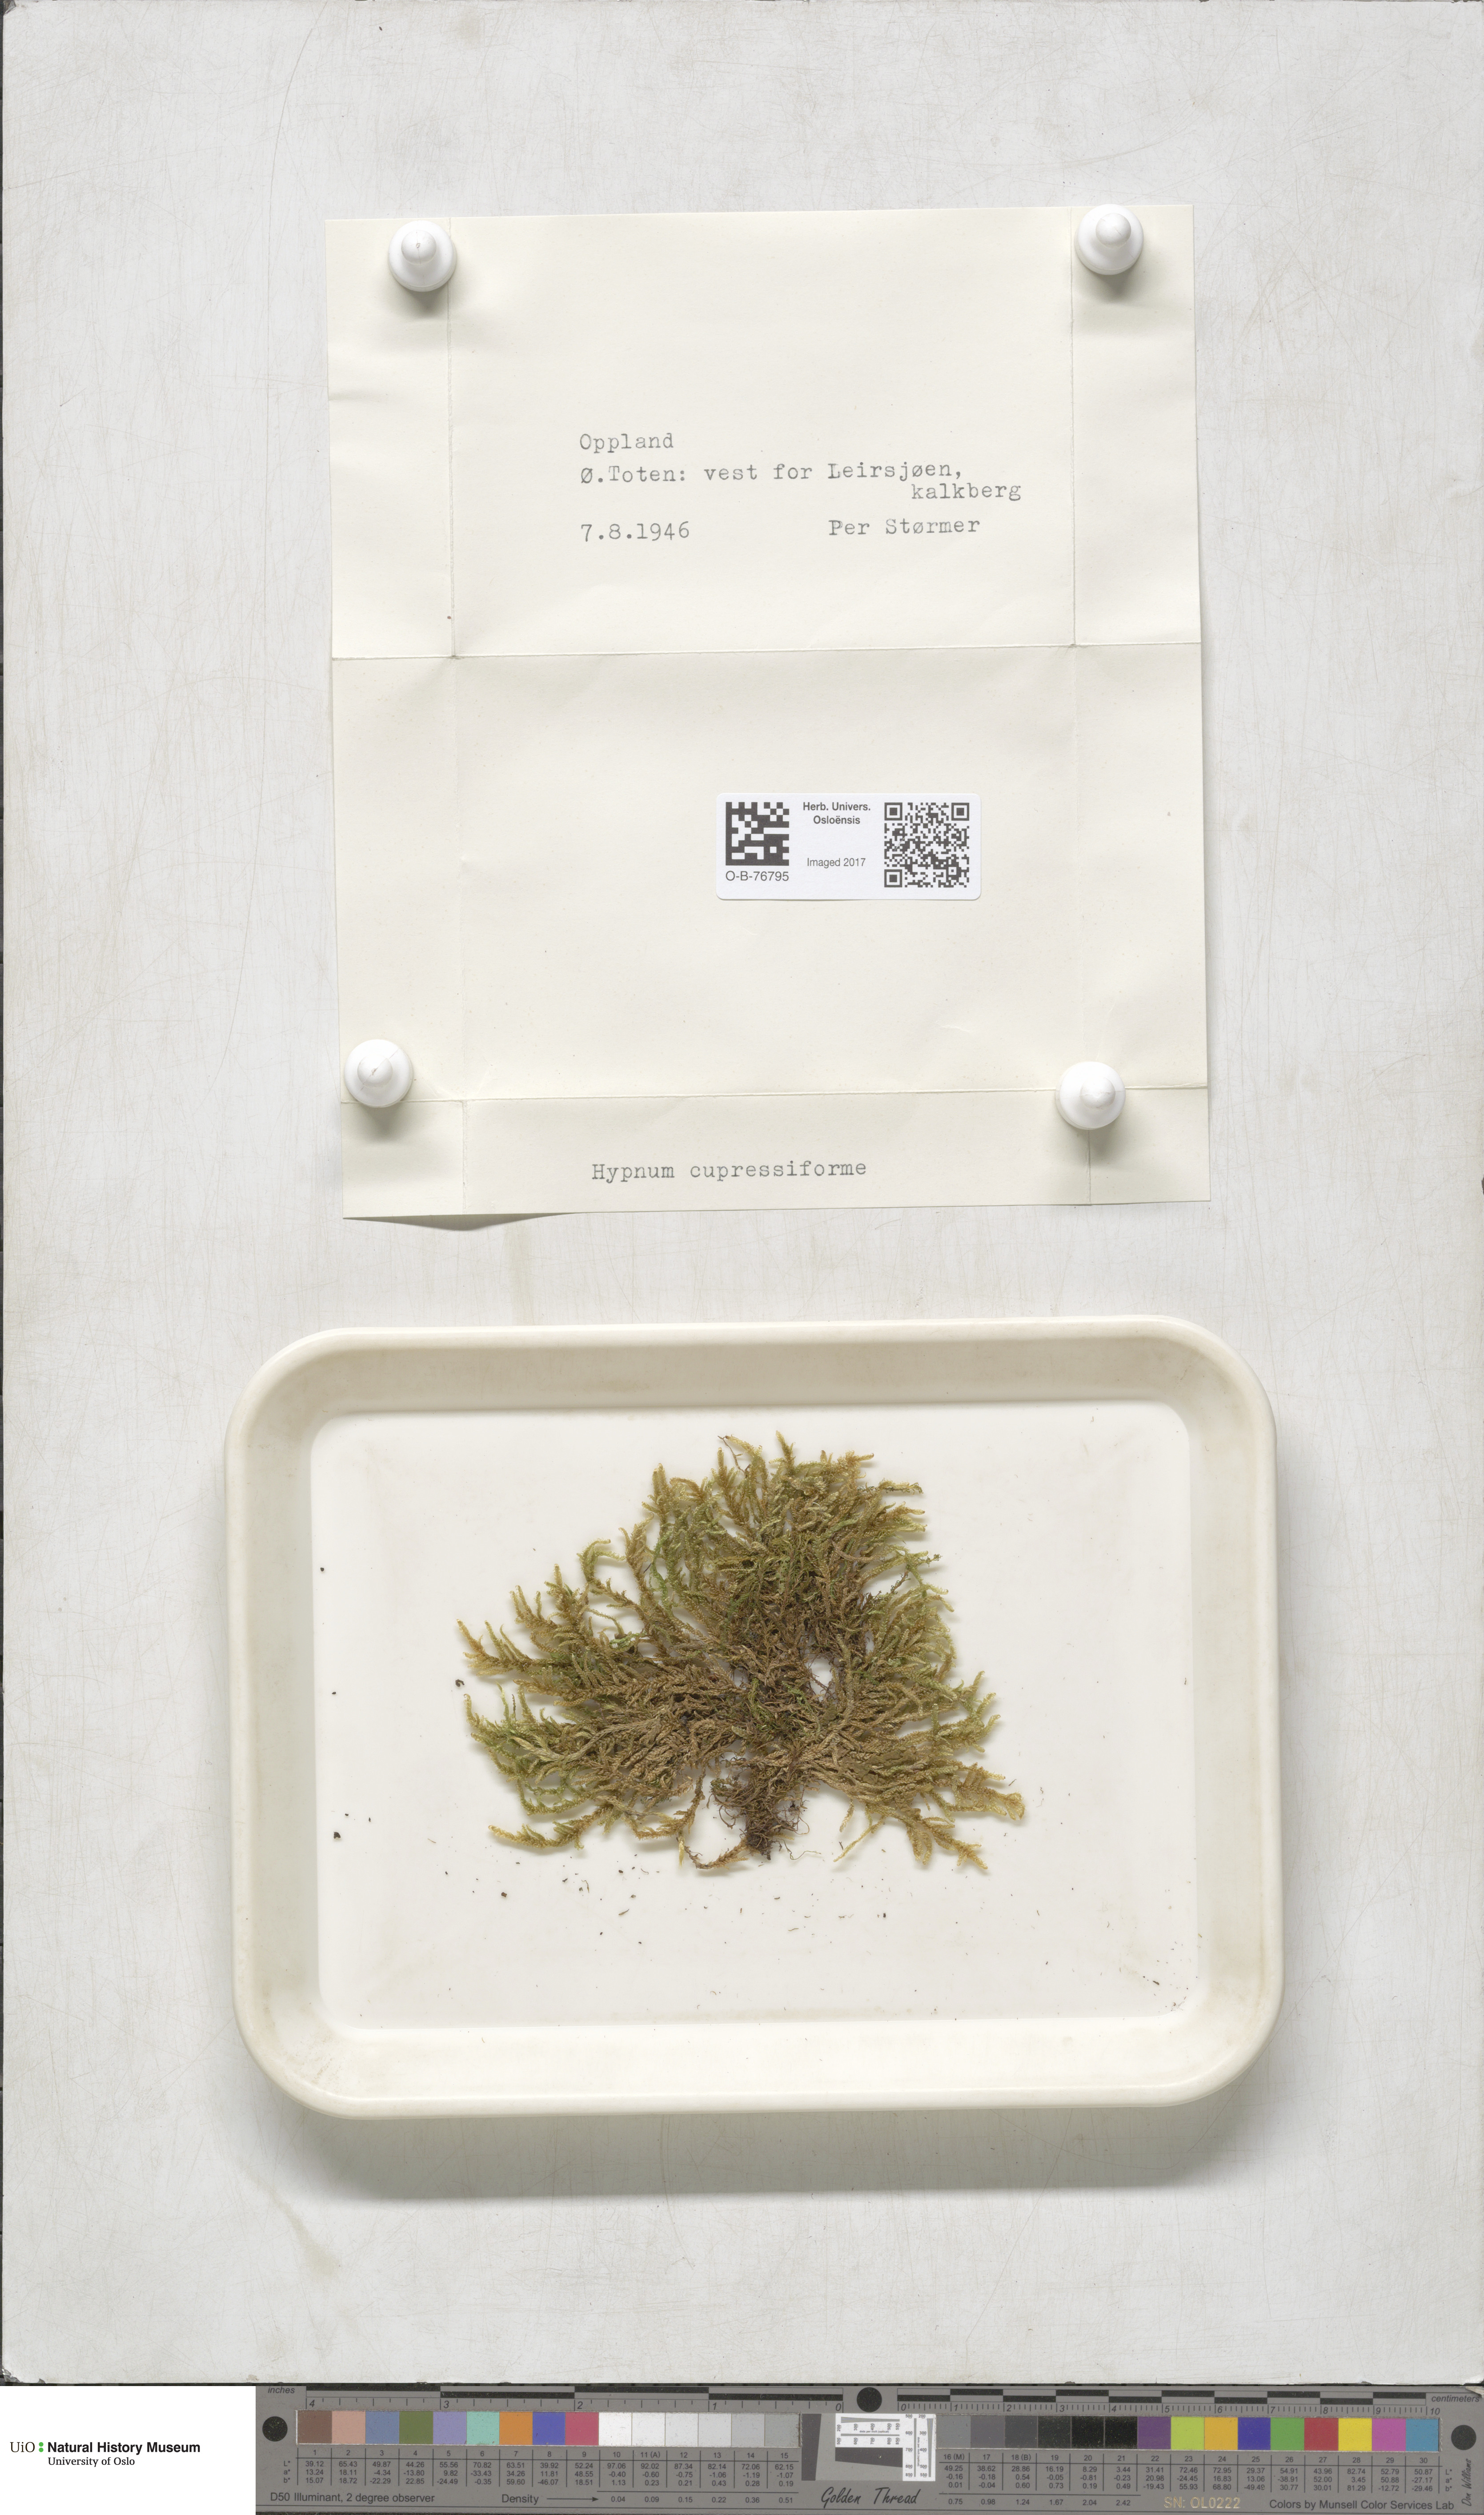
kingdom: Plantae
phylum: Bryophyta
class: Bryopsida
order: Hypnales
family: Hypnaceae
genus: Hypnum
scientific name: Hypnum cupressiforme
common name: Cypress-leaved plait-moss
